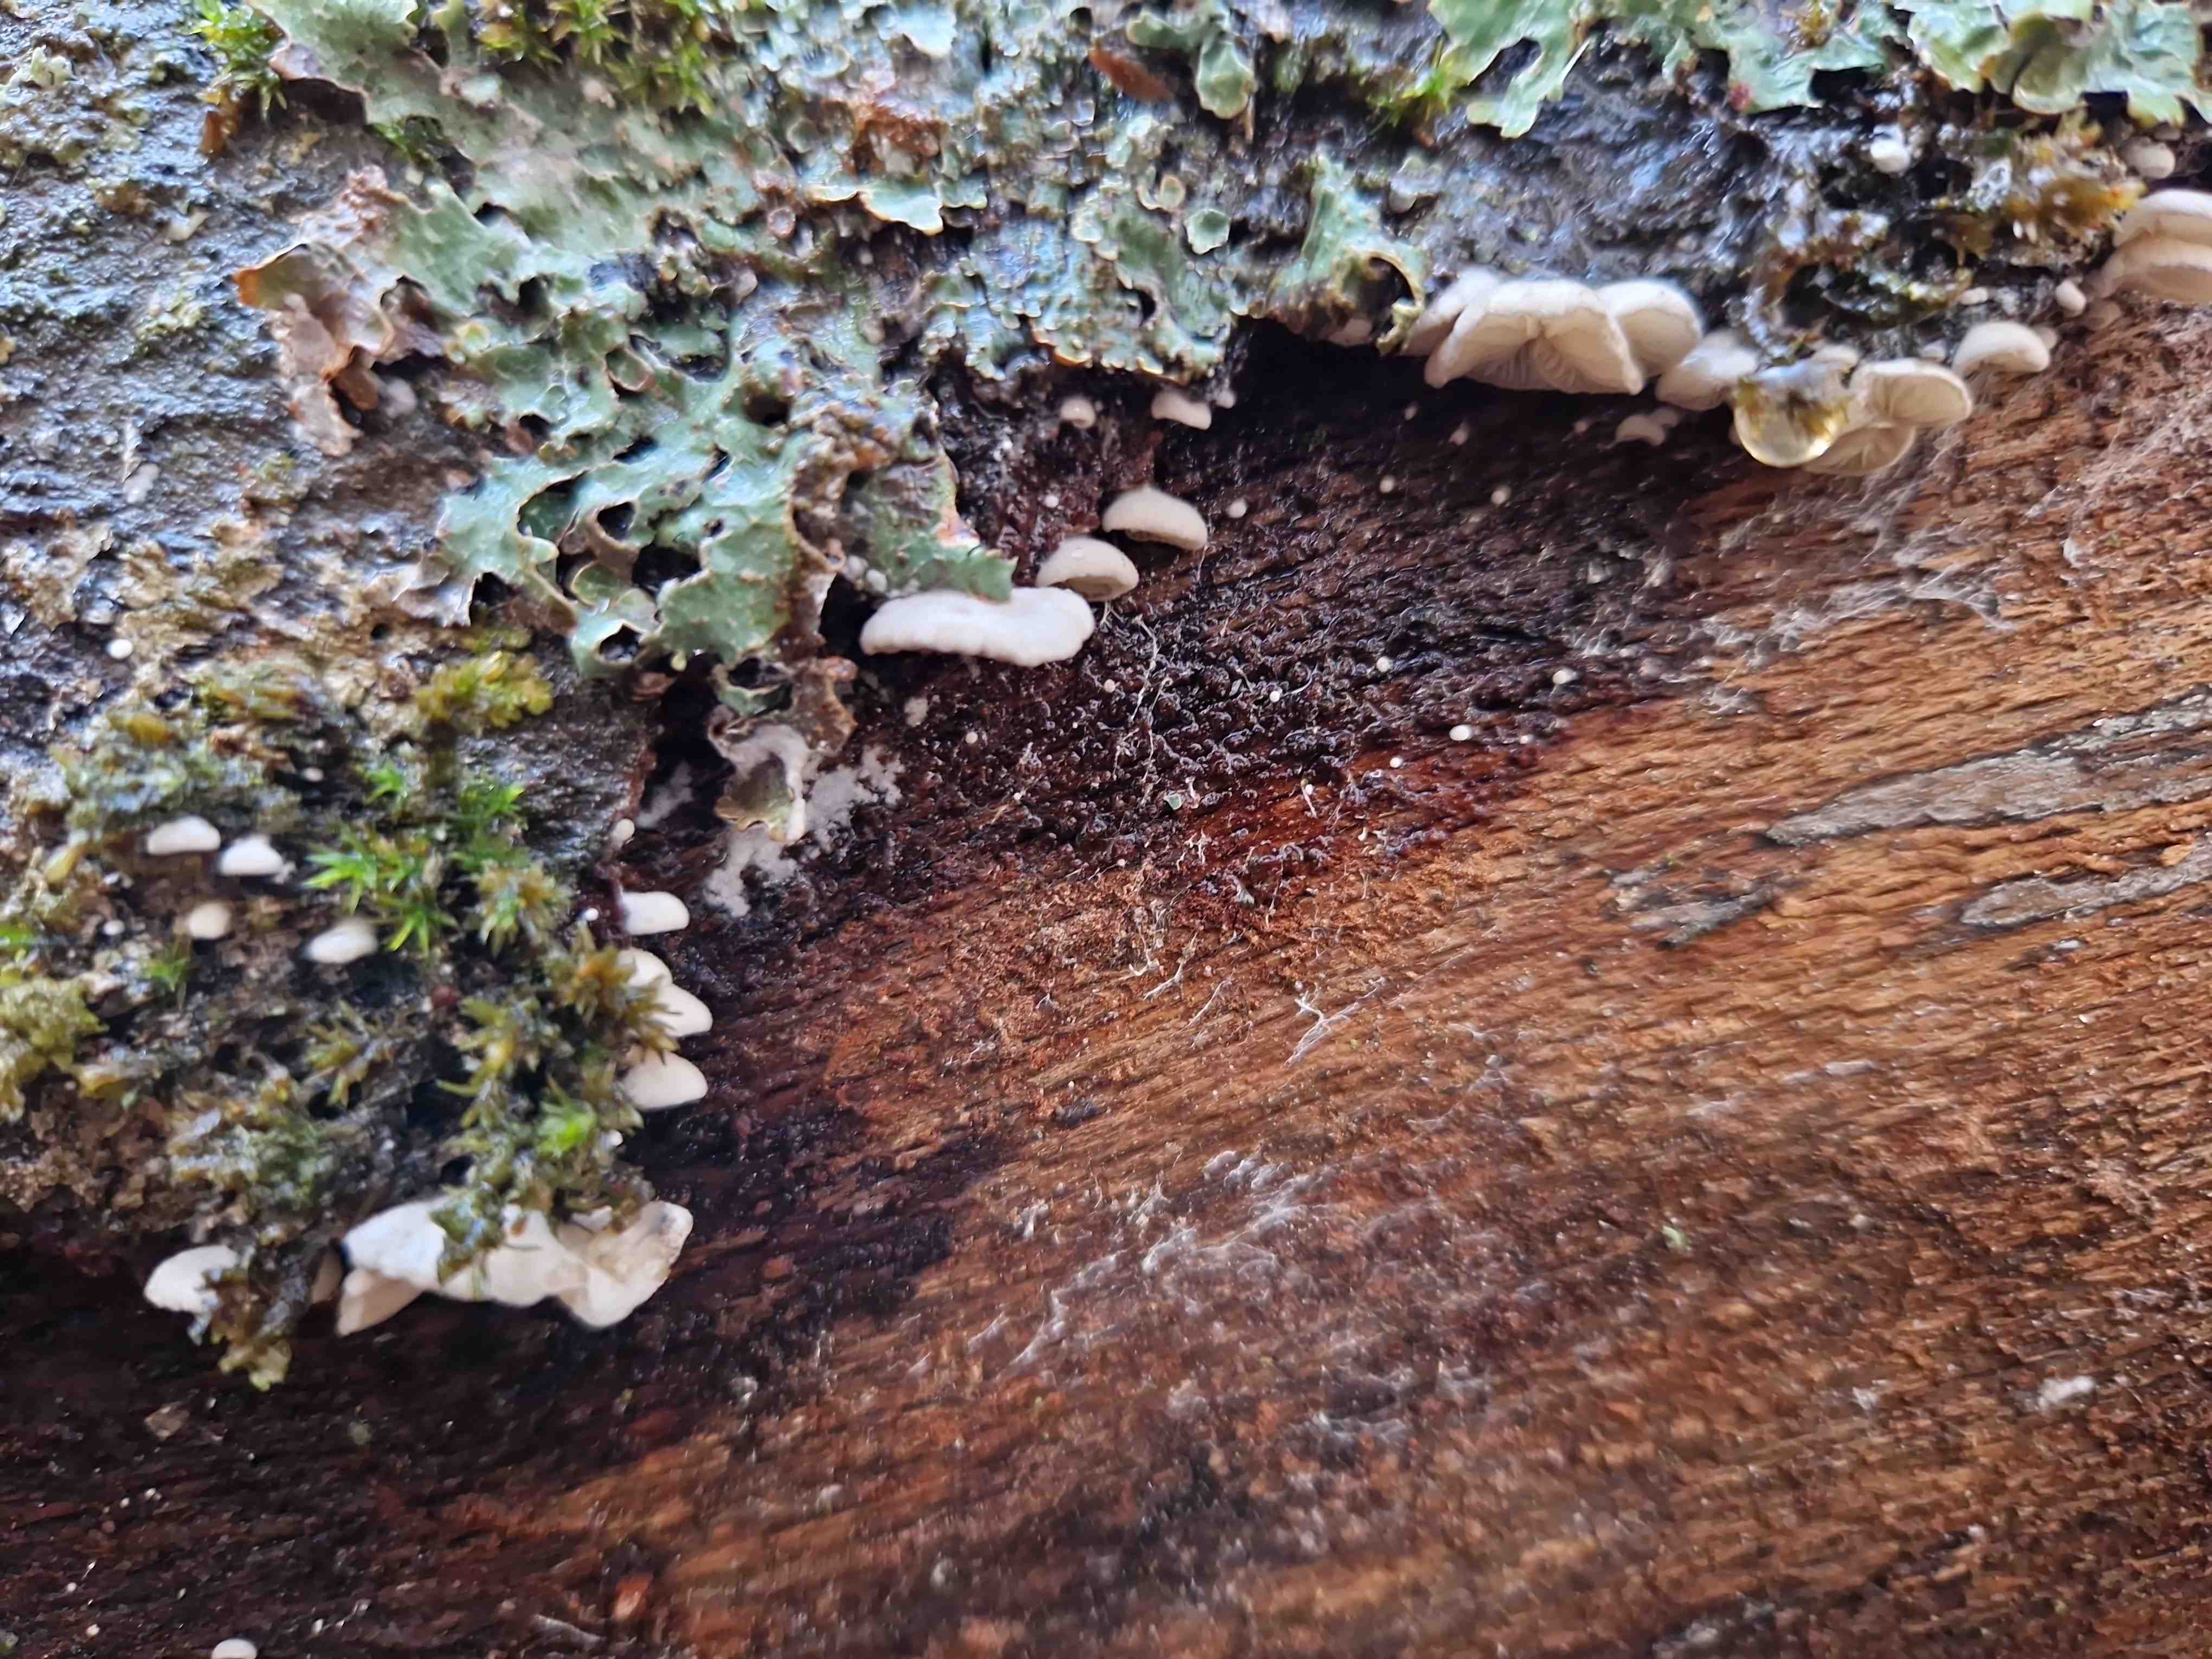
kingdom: Fungi
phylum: Basidiomycota
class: Agaricomycetes
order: Agaricales
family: Pleurotaceae
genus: Hohenbuehelia
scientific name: Hohenbuehelia
